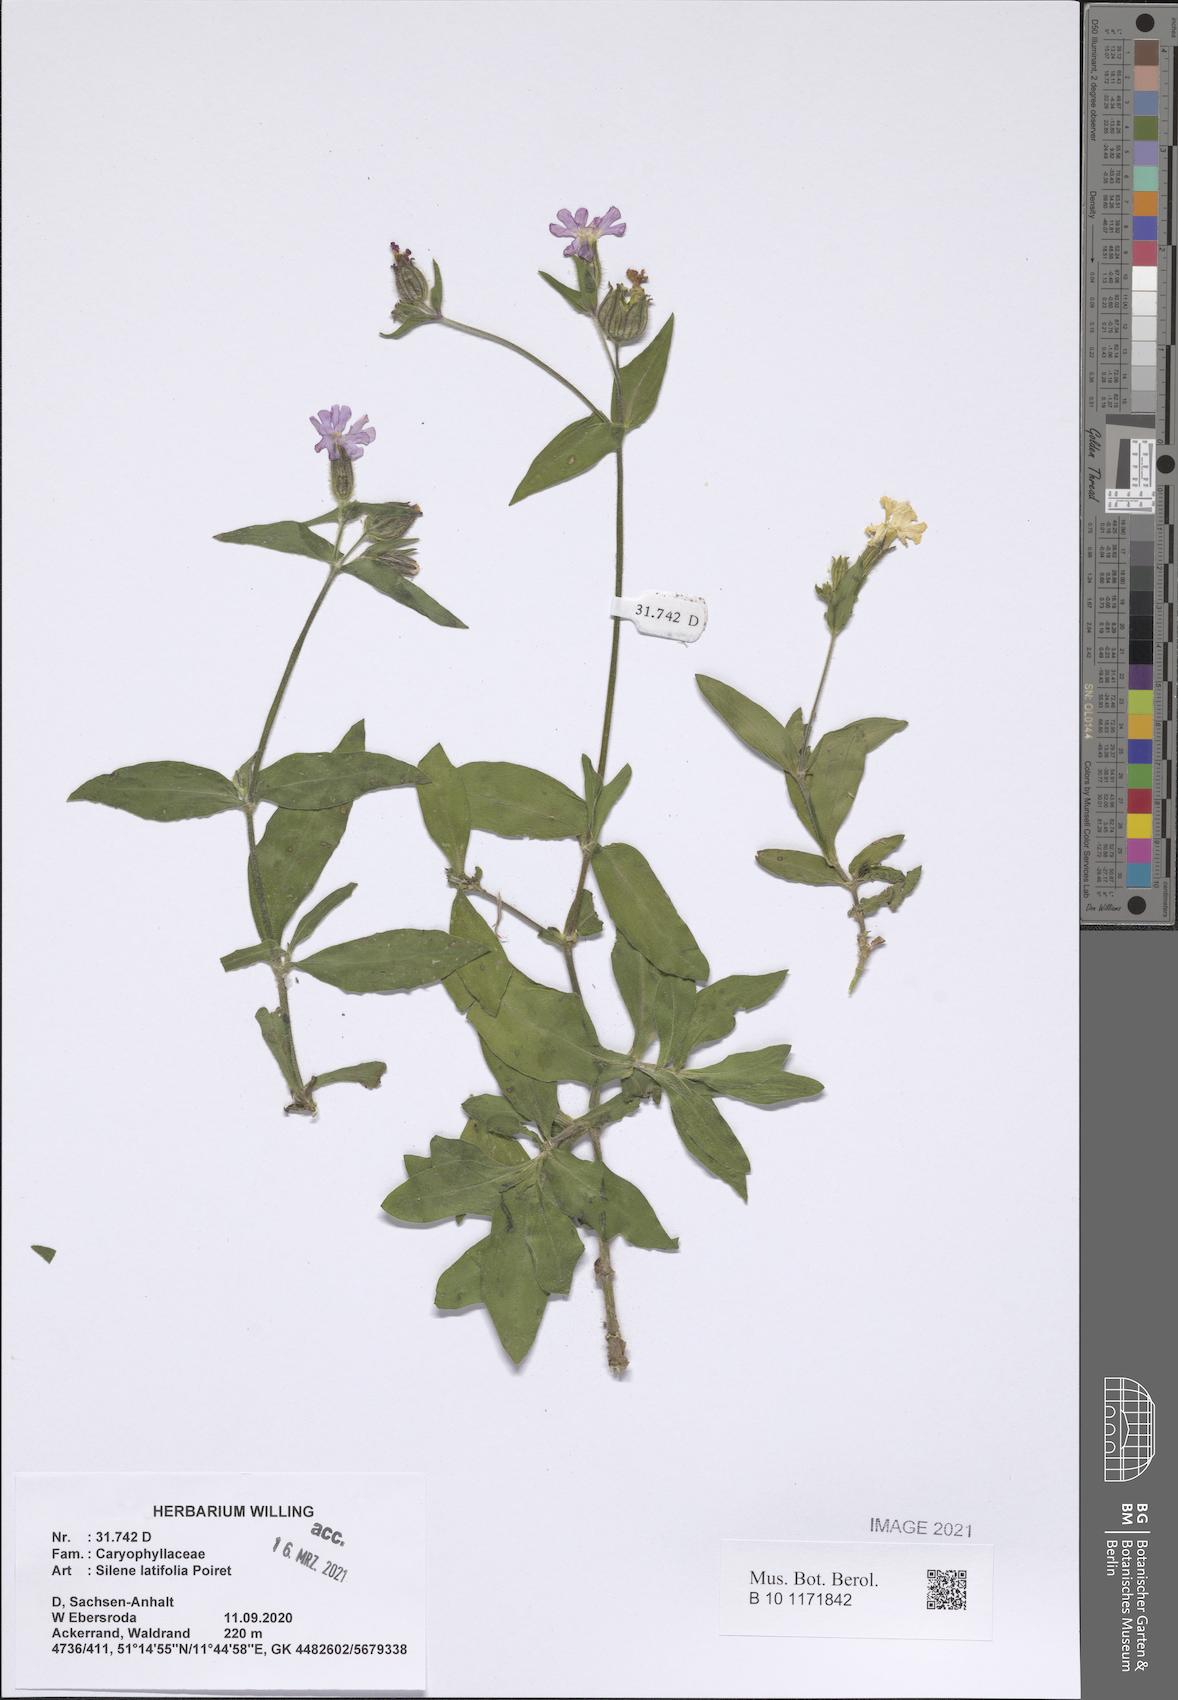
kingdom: Plantae
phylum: Tracheophyta
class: Magnoliopsida
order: Caryophyllales
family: Caryophyllaceae
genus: Silene
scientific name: Silene latifolia
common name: White campion
